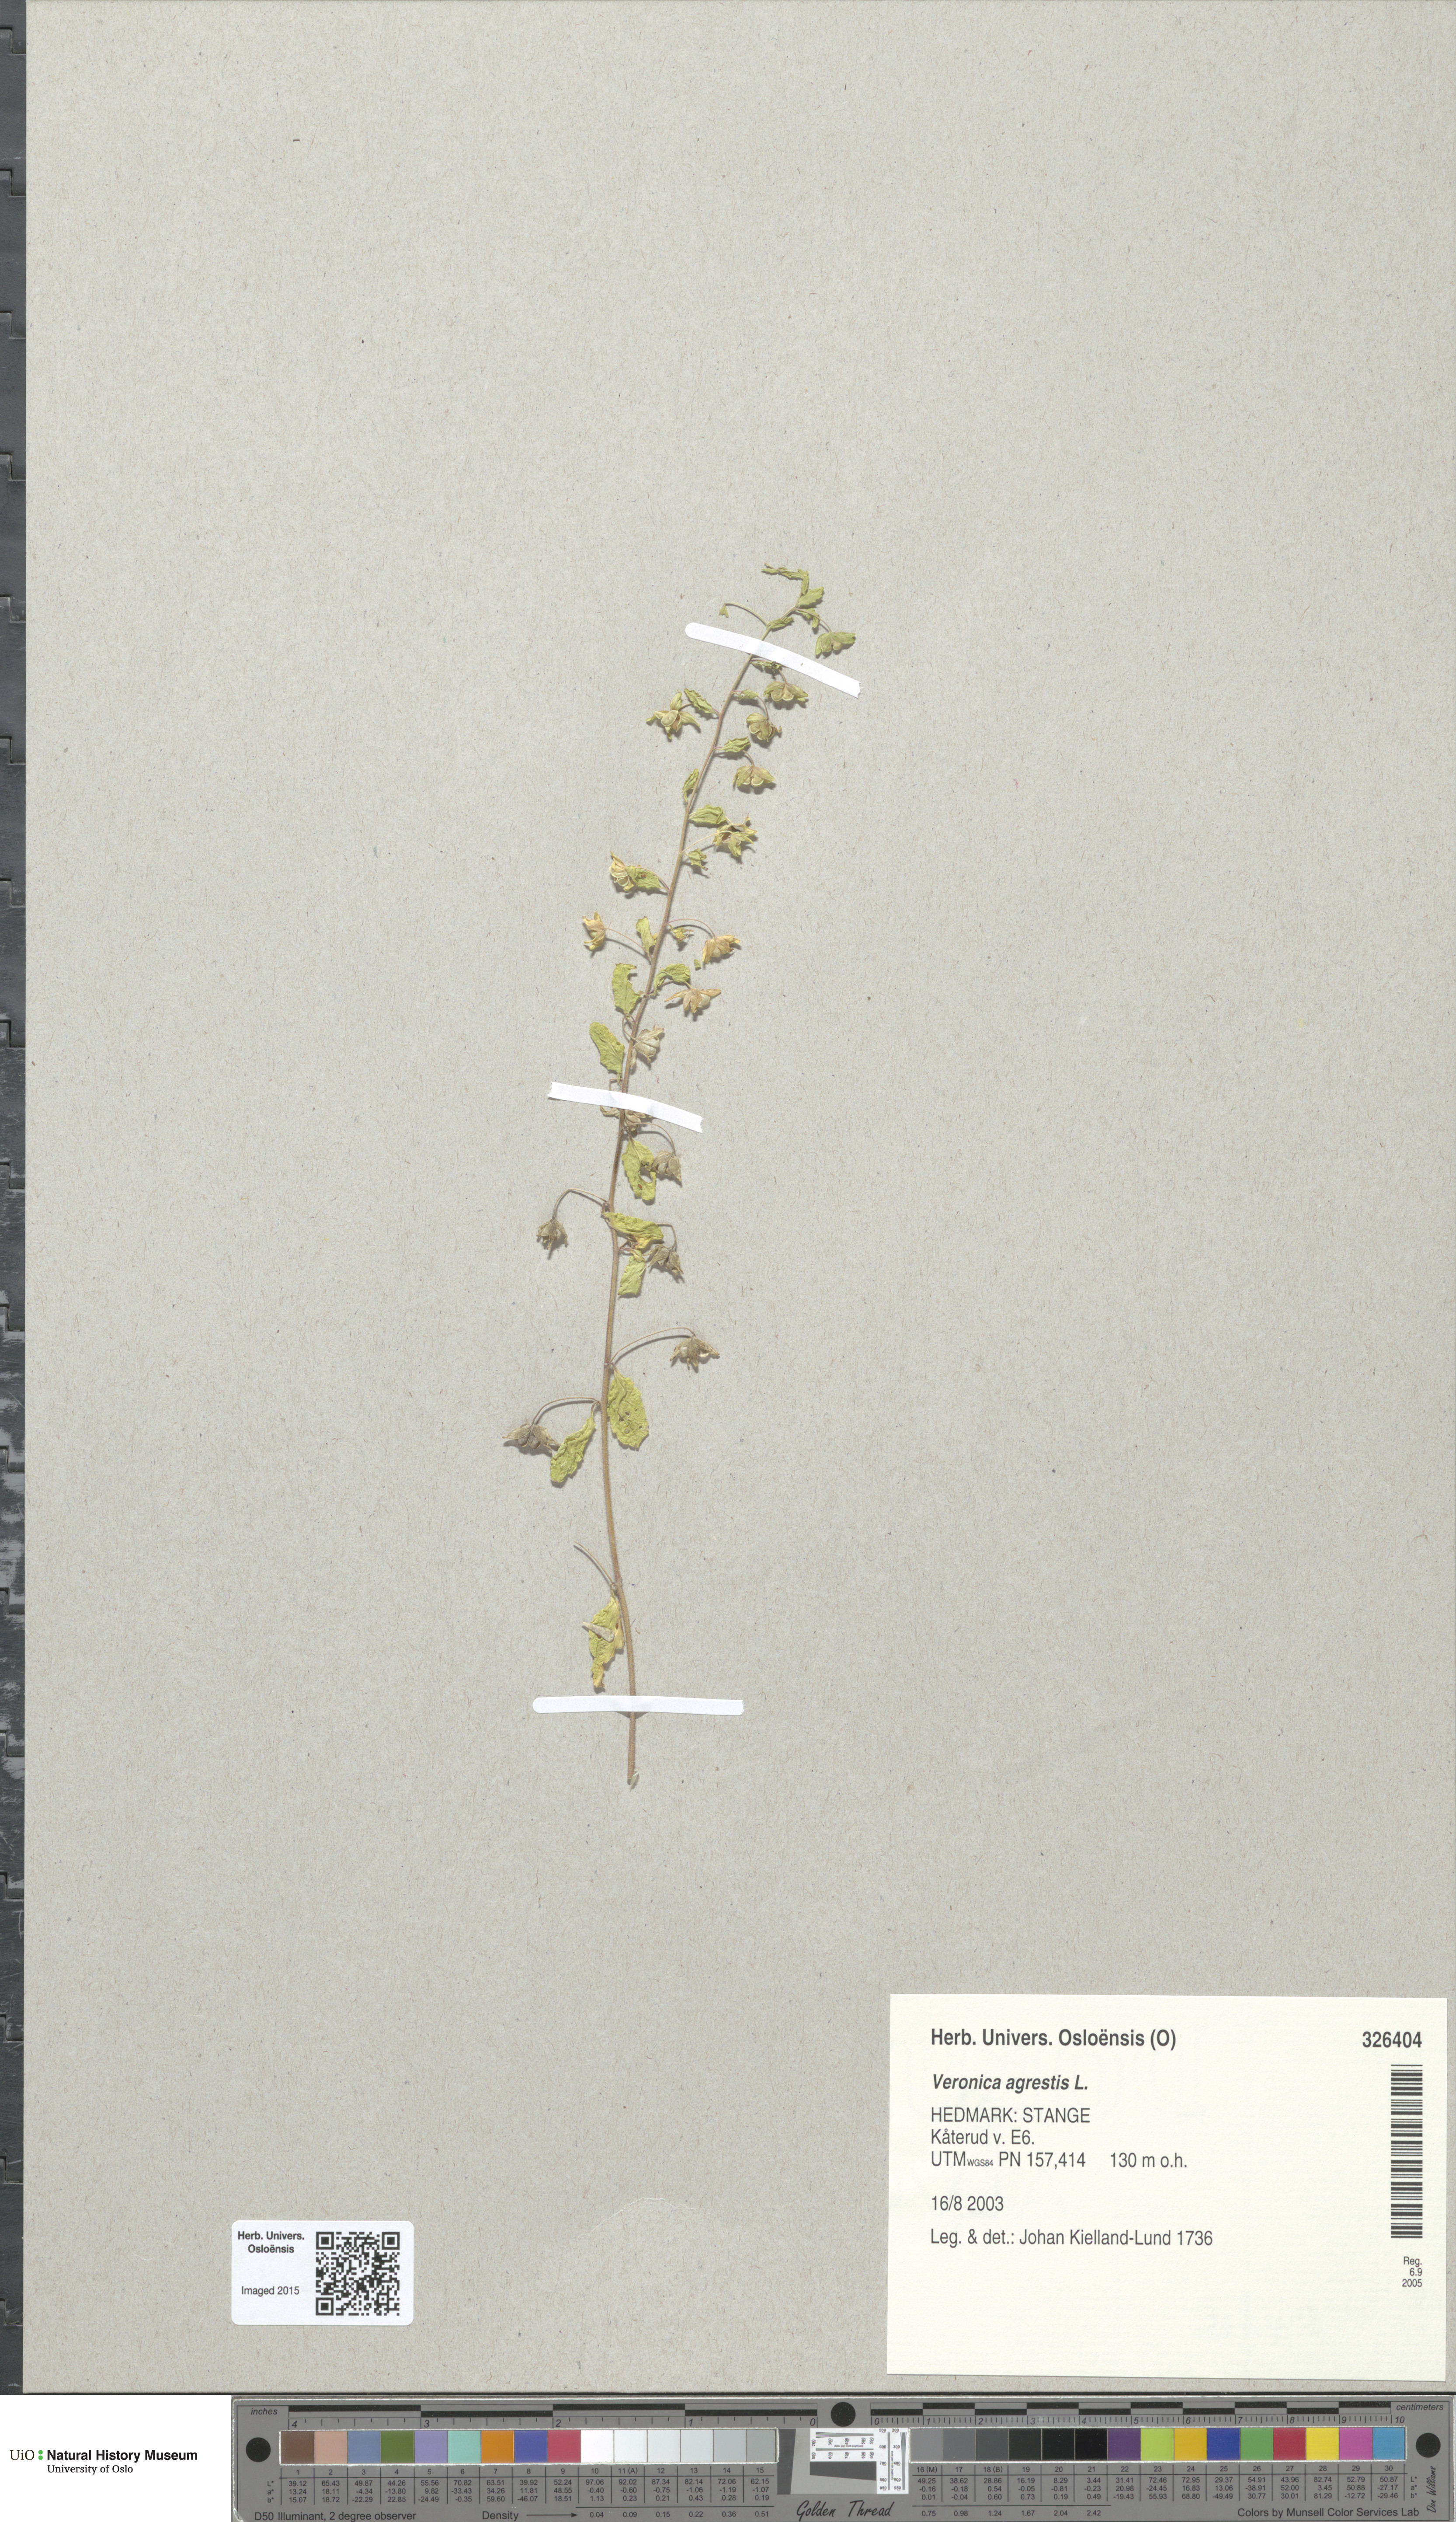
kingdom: Plantae
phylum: Tracheophyta
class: Magnoliopsida
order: Lamiales
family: Plantaginaceae
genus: Veronica
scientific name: Veronica agrestis
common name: Green field-speedwell
